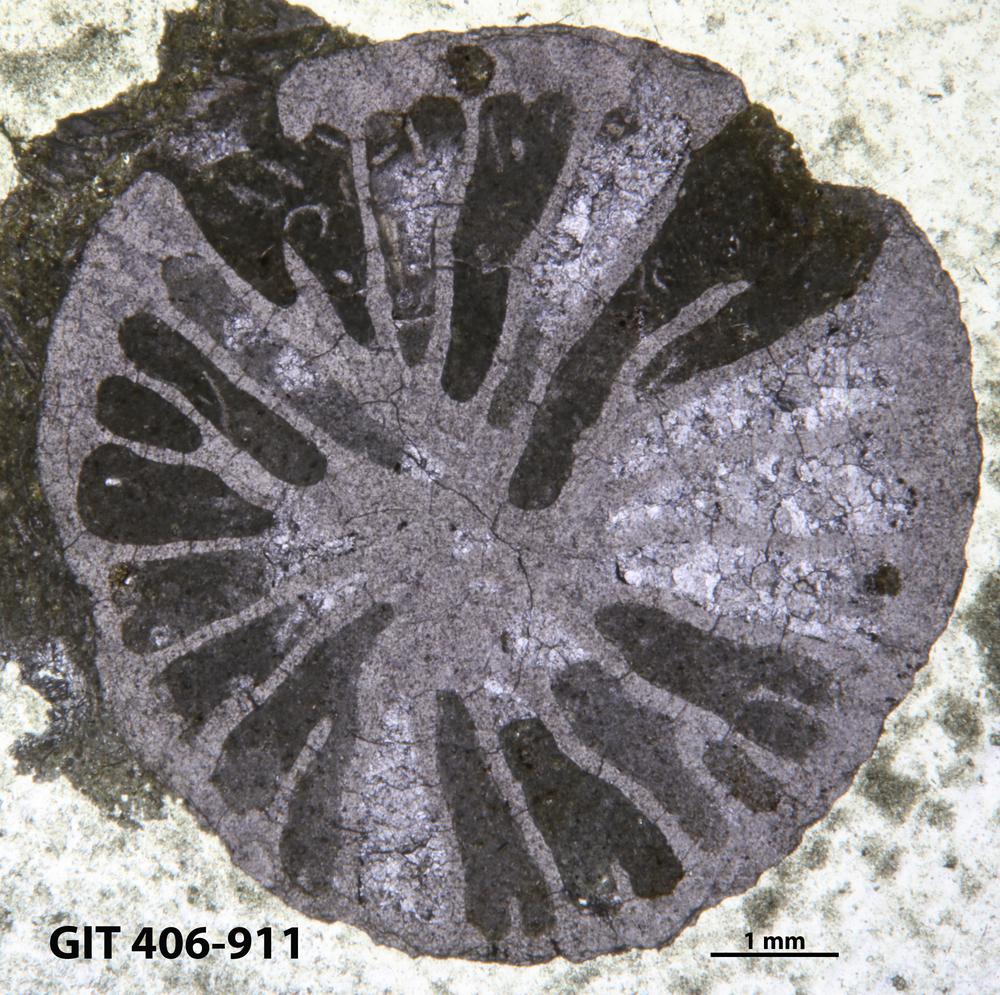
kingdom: Animalia
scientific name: Animalia
